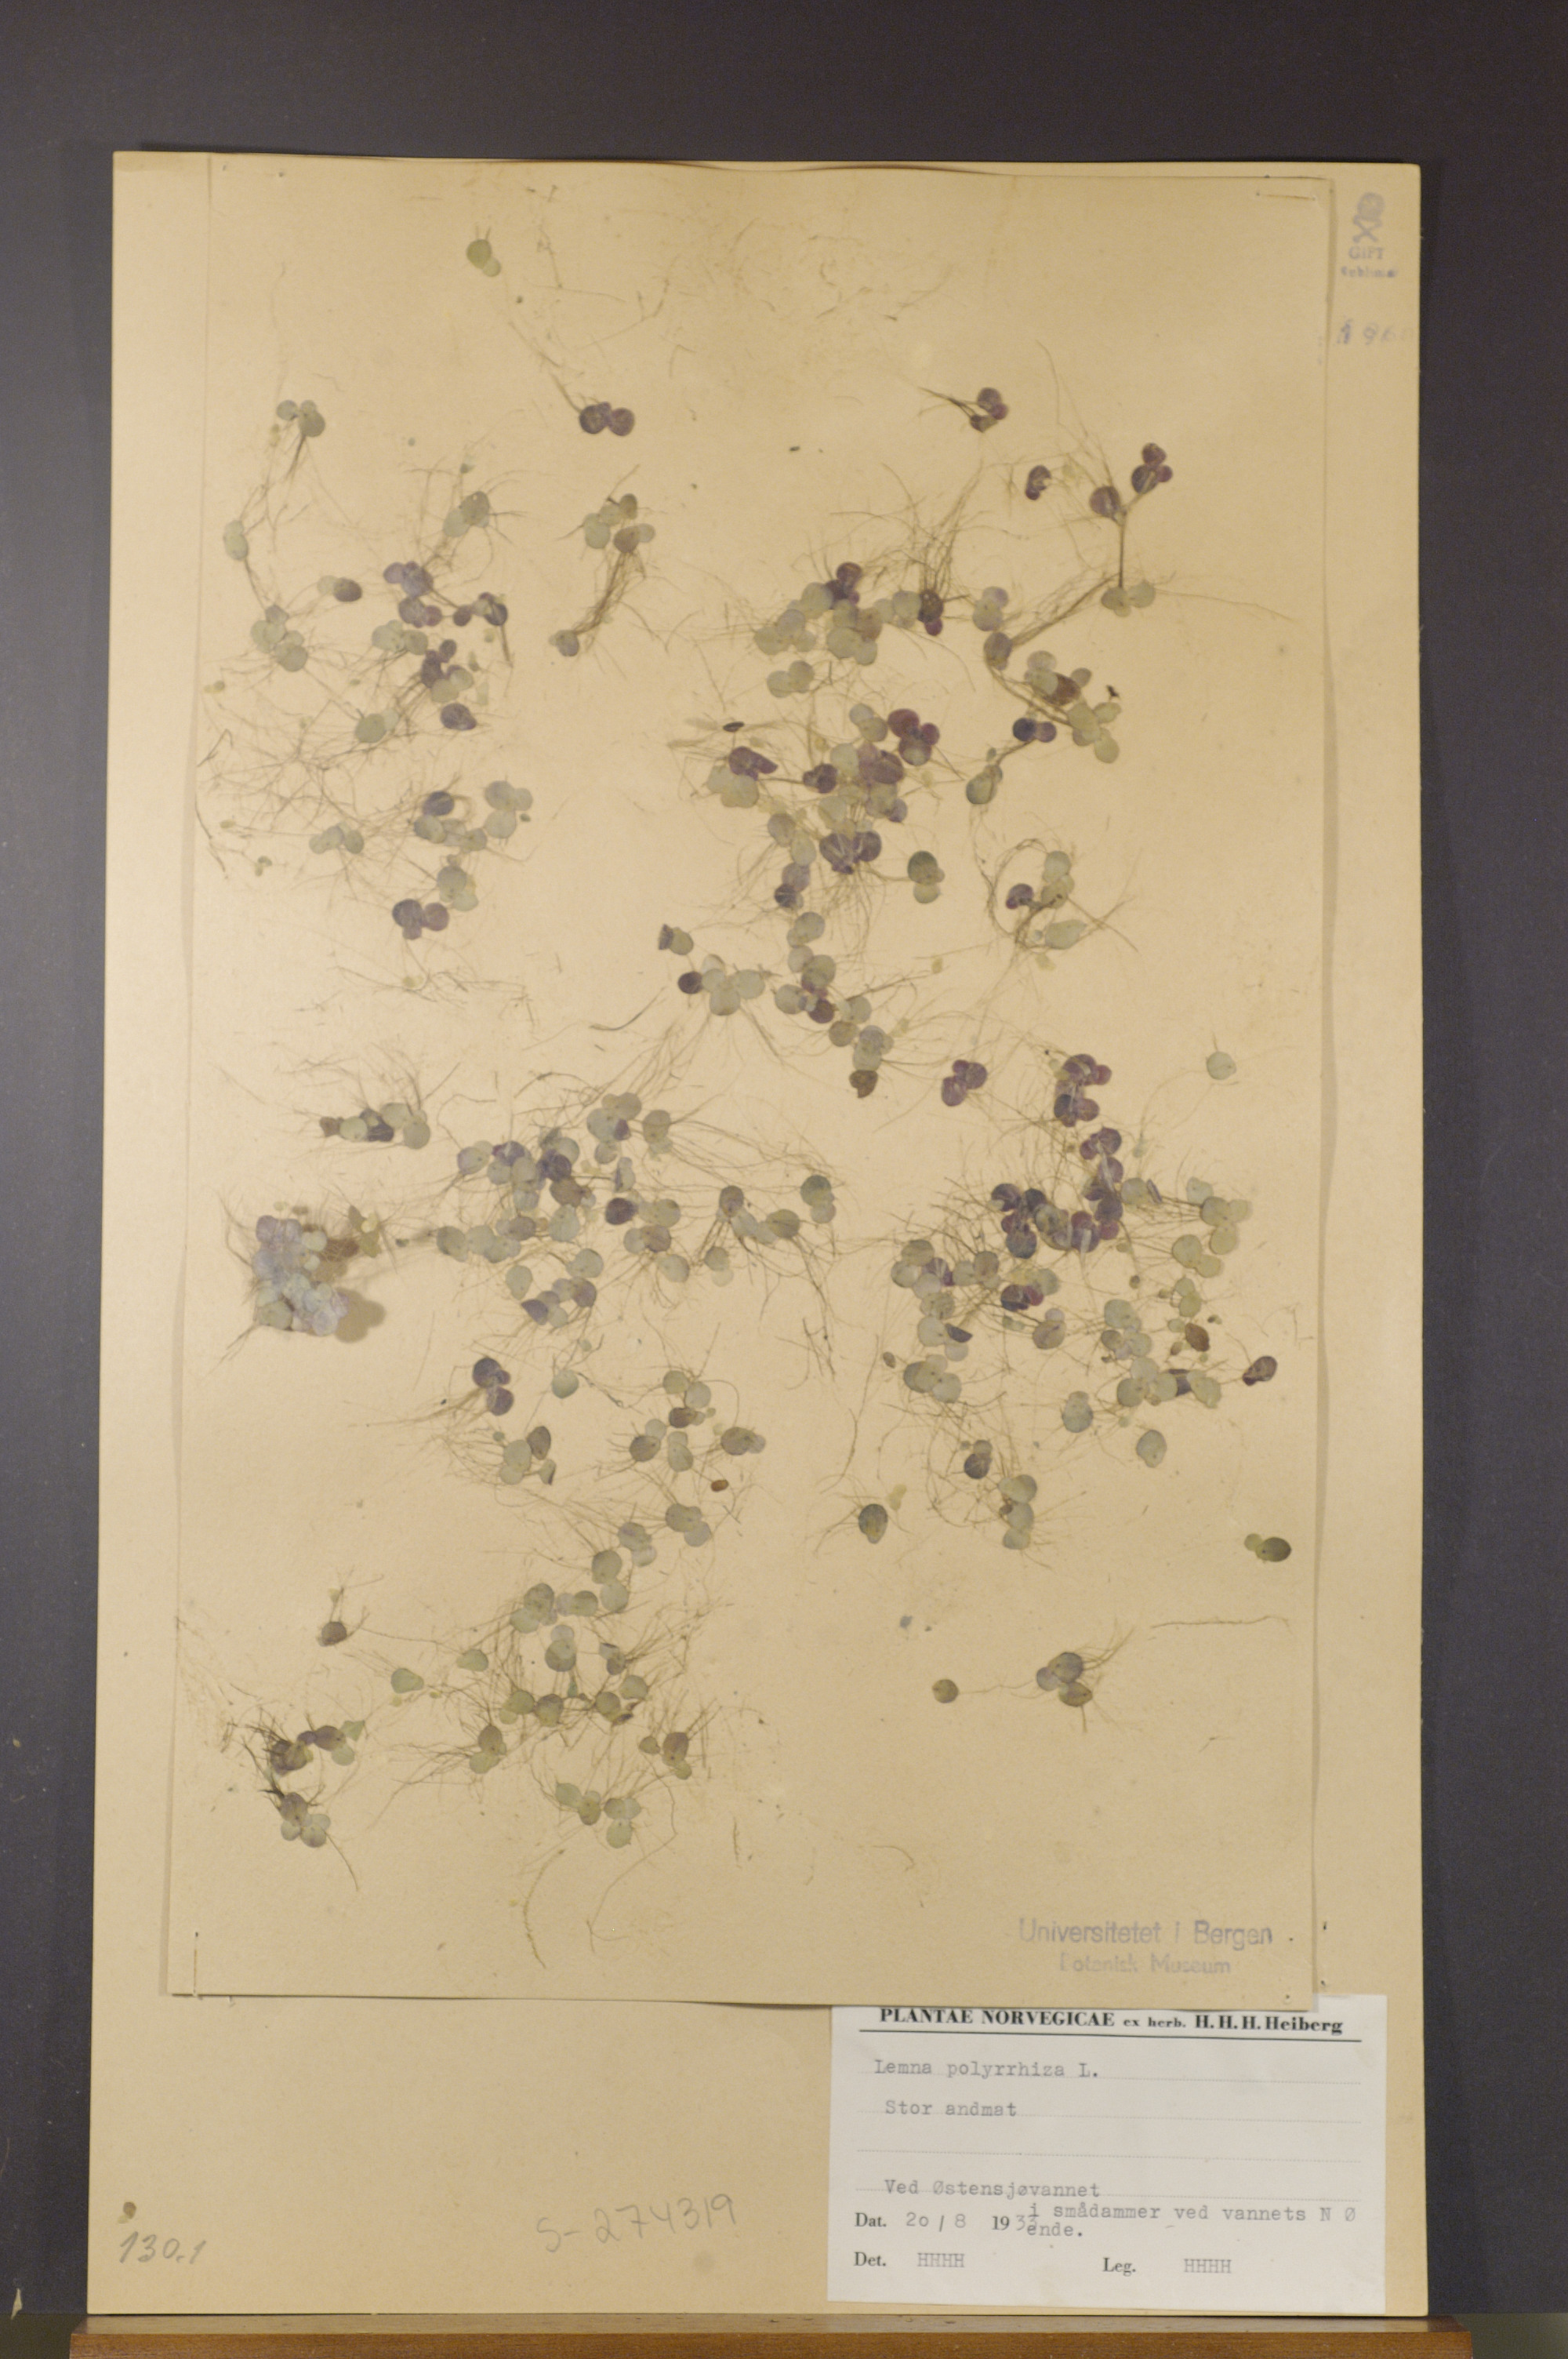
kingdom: Plantae
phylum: Tracheophyta
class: Liliopsida
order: Alismatales
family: Araceae
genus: Spirodela
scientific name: Spirodela polyrhiza
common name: Great duckweed
